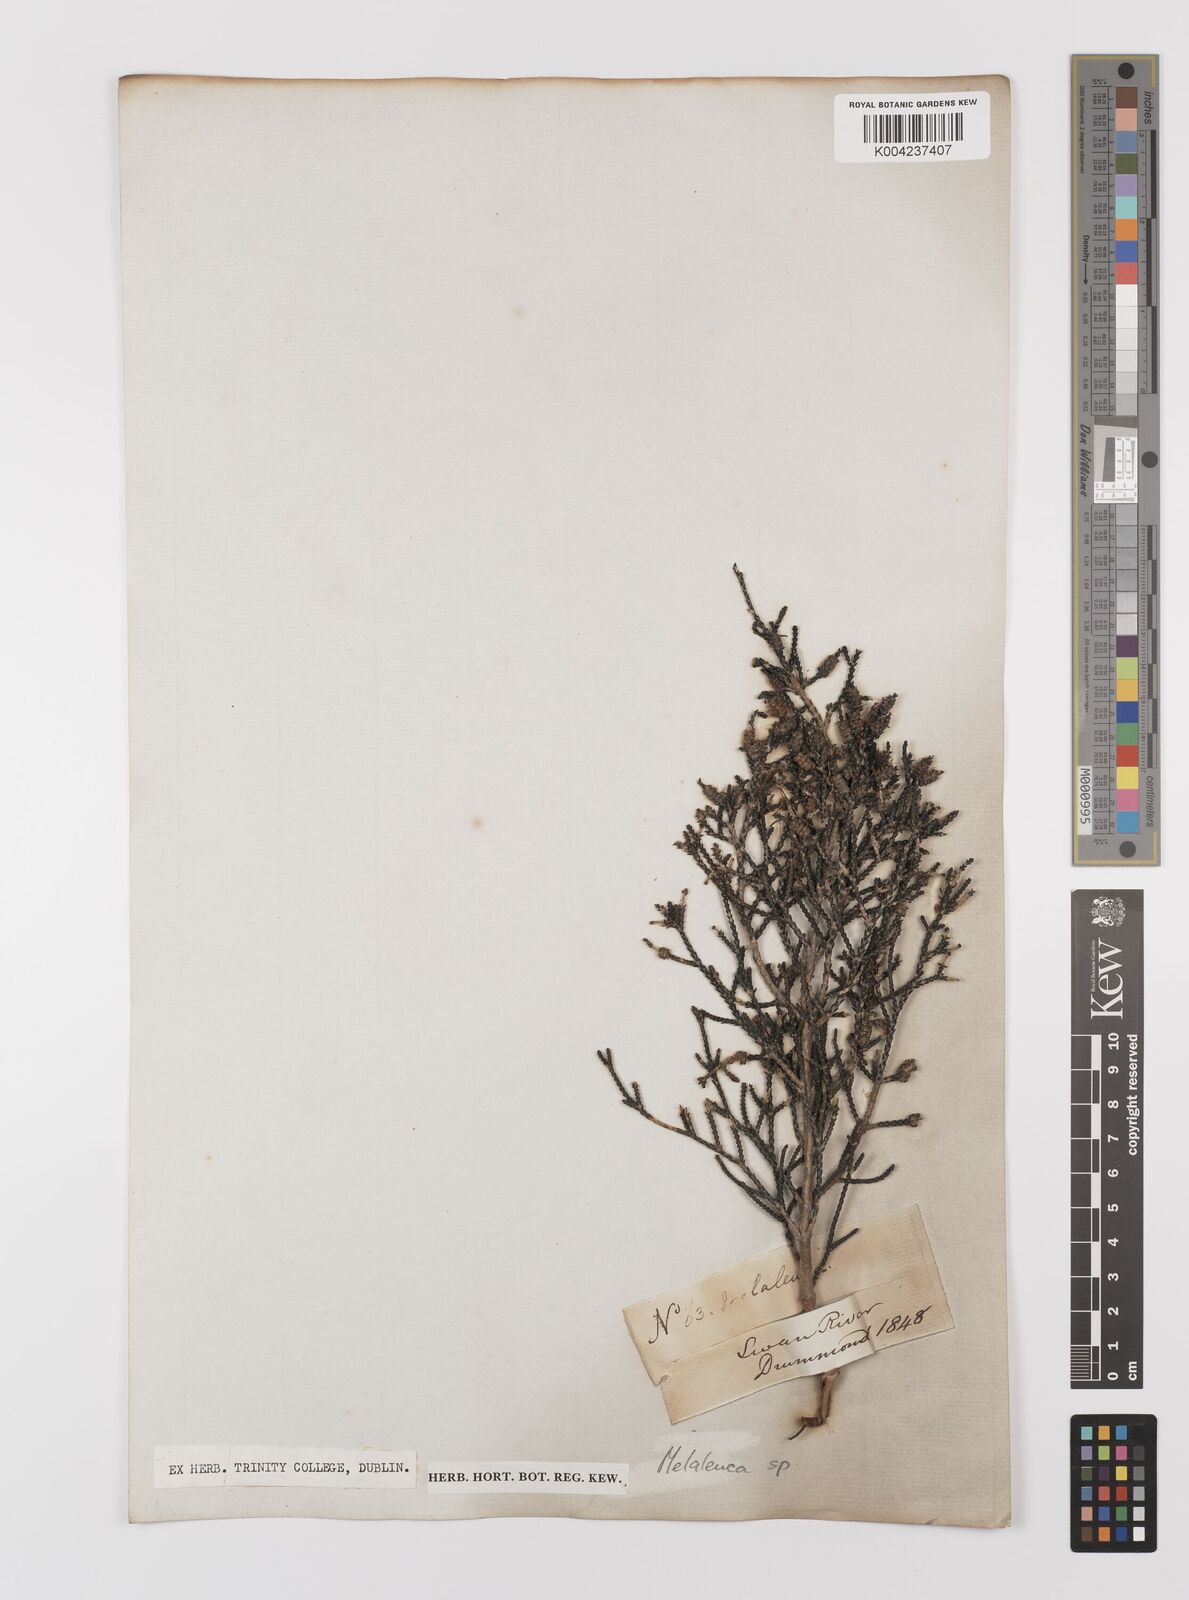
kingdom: Plantae
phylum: Tracheophyta
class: Magnoliopsida
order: Myrtales
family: Myrtaceae
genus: Melaleuca
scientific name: Melaleuca
